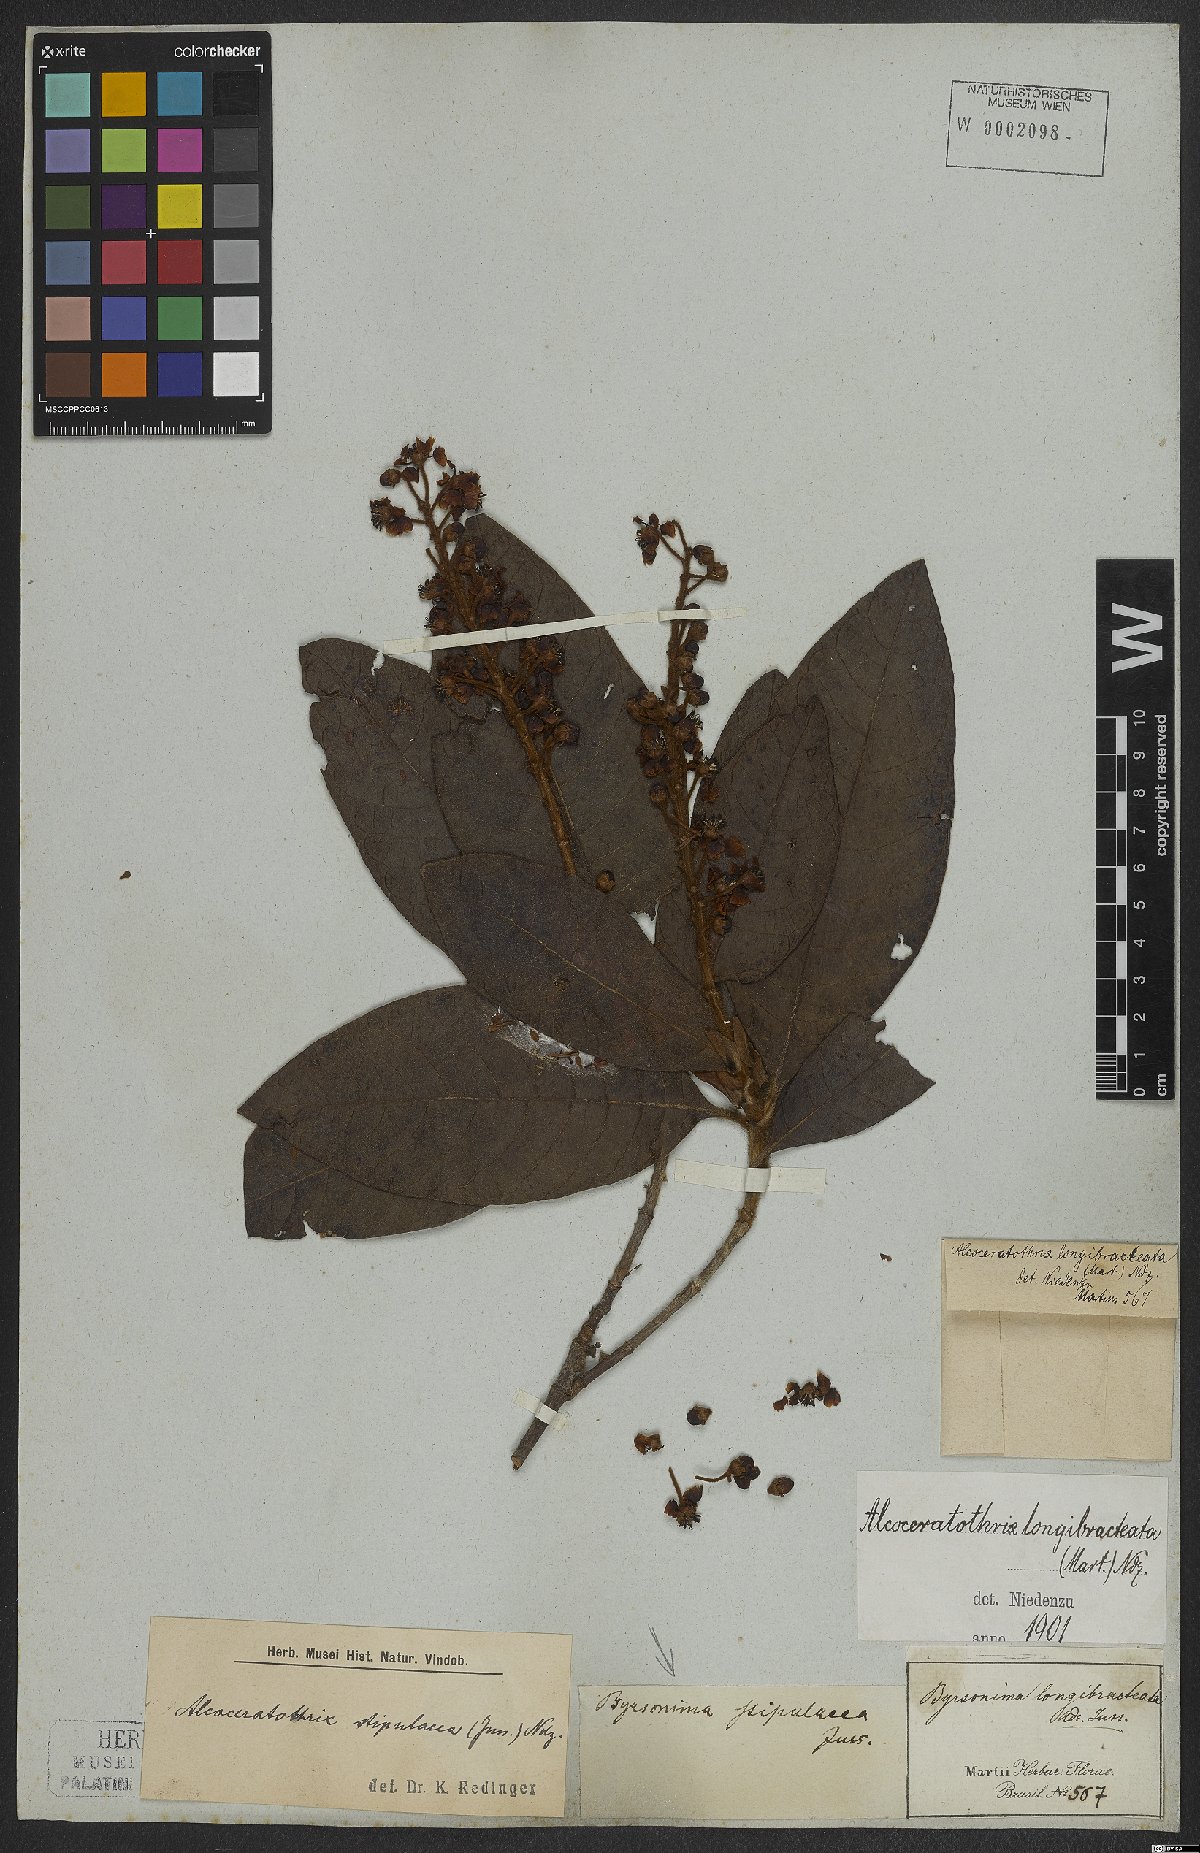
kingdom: Plantae
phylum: Tracheophyta
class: Magnoliopsida
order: Malpighiales
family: Malpighiaceae
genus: Byrsonima
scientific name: Byrsonima stipulacea
